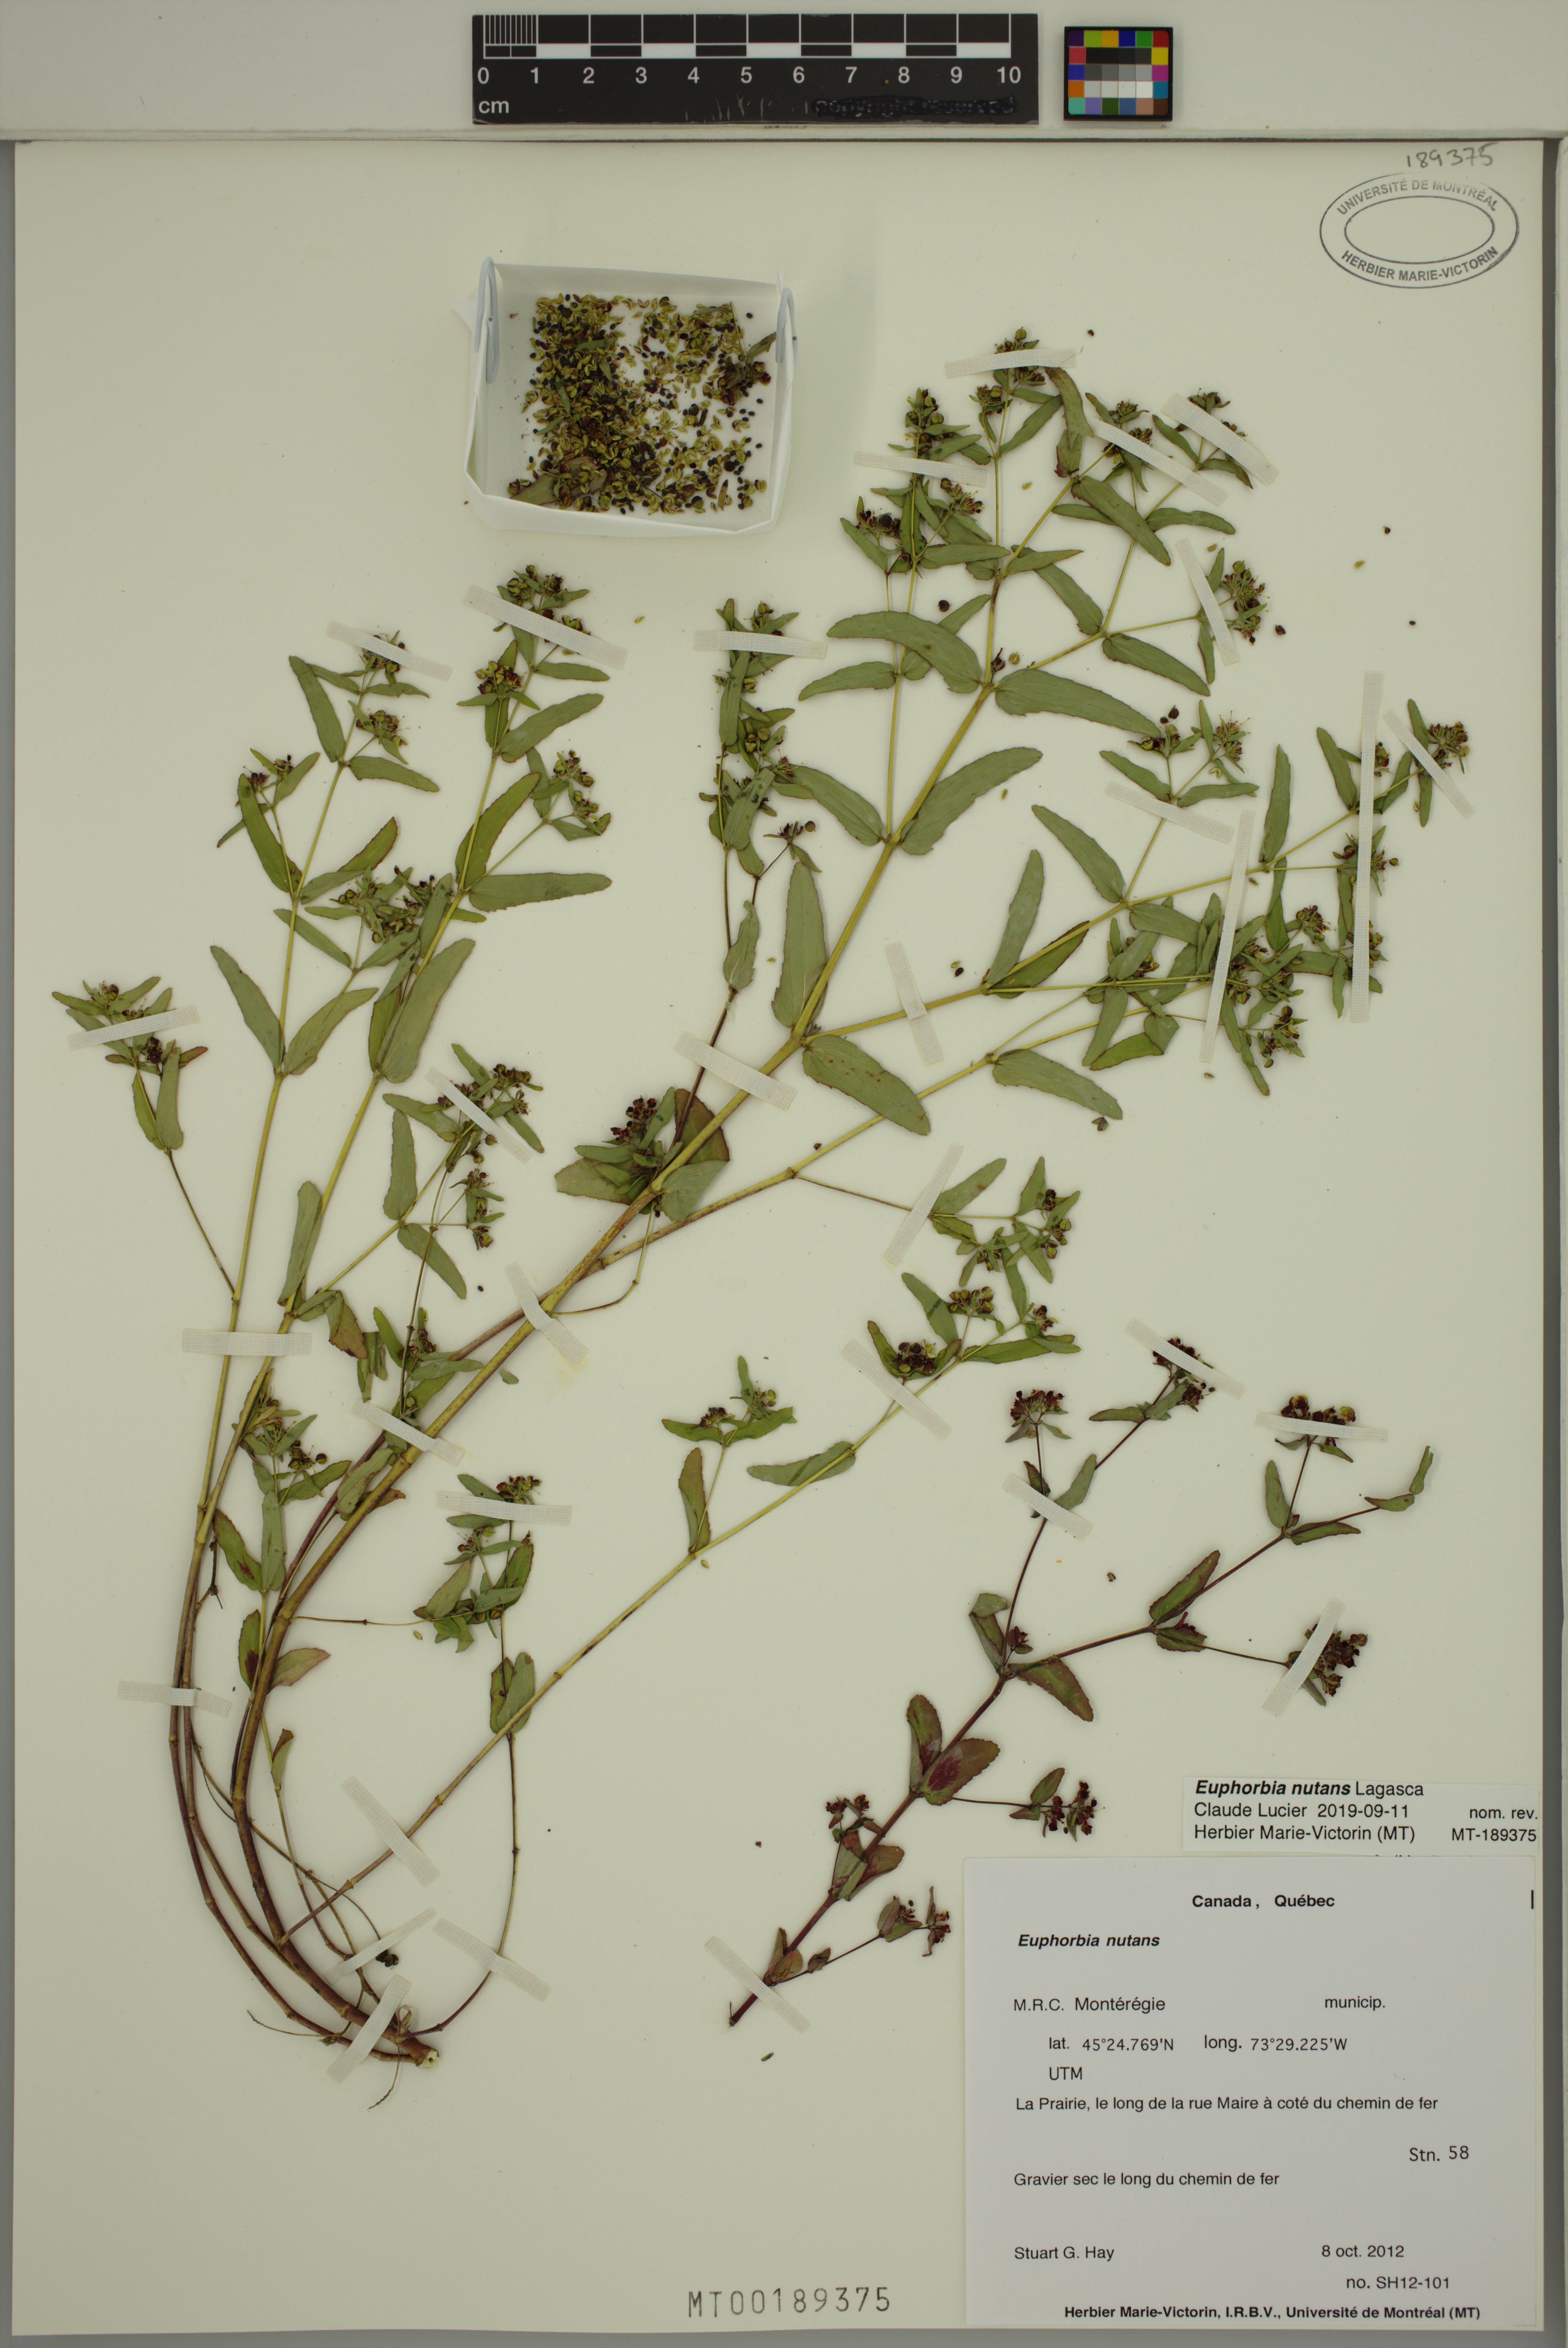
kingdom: Plantae
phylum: Tracheophyta
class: Magnoliopsida
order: Malpighiales
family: Euphorbiaceae
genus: Euphorbia
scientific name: Euphorbia nutans
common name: Eyebane
